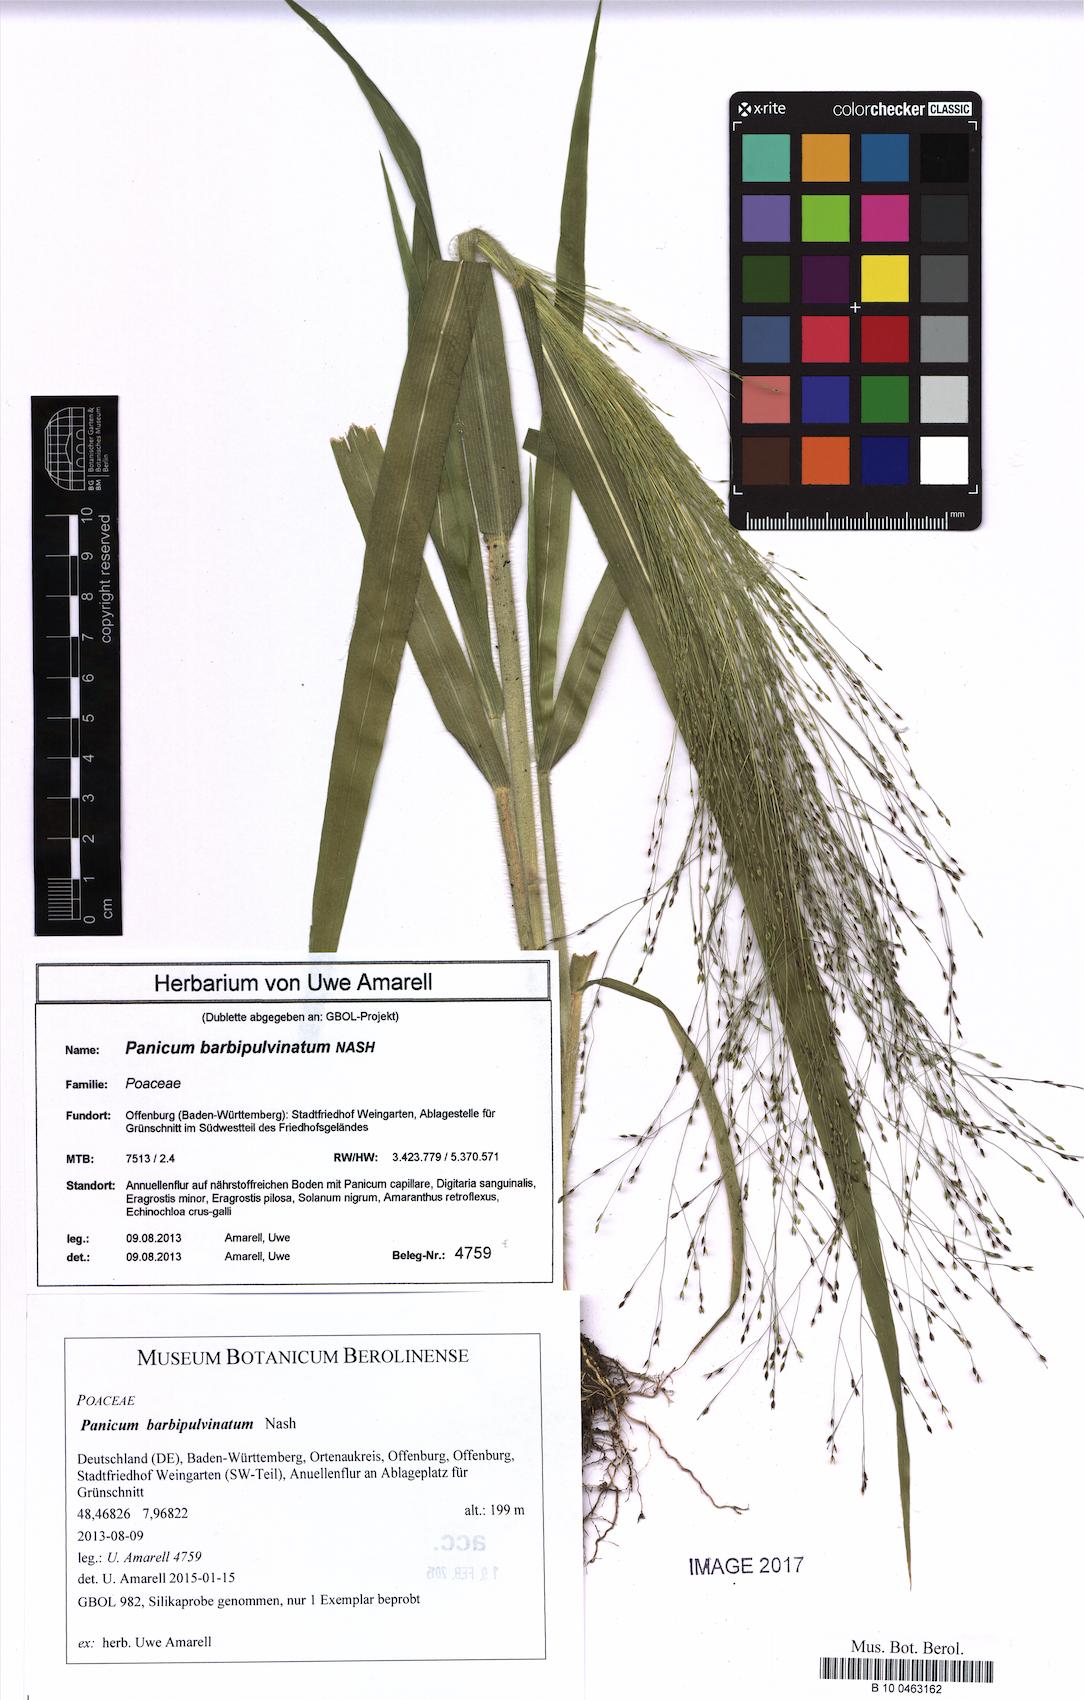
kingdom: Plantae
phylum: Tracheophyta
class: Liliopsida
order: Poales
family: Poaceae
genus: Panicum
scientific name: Panicum capillare
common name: Witch-grass
